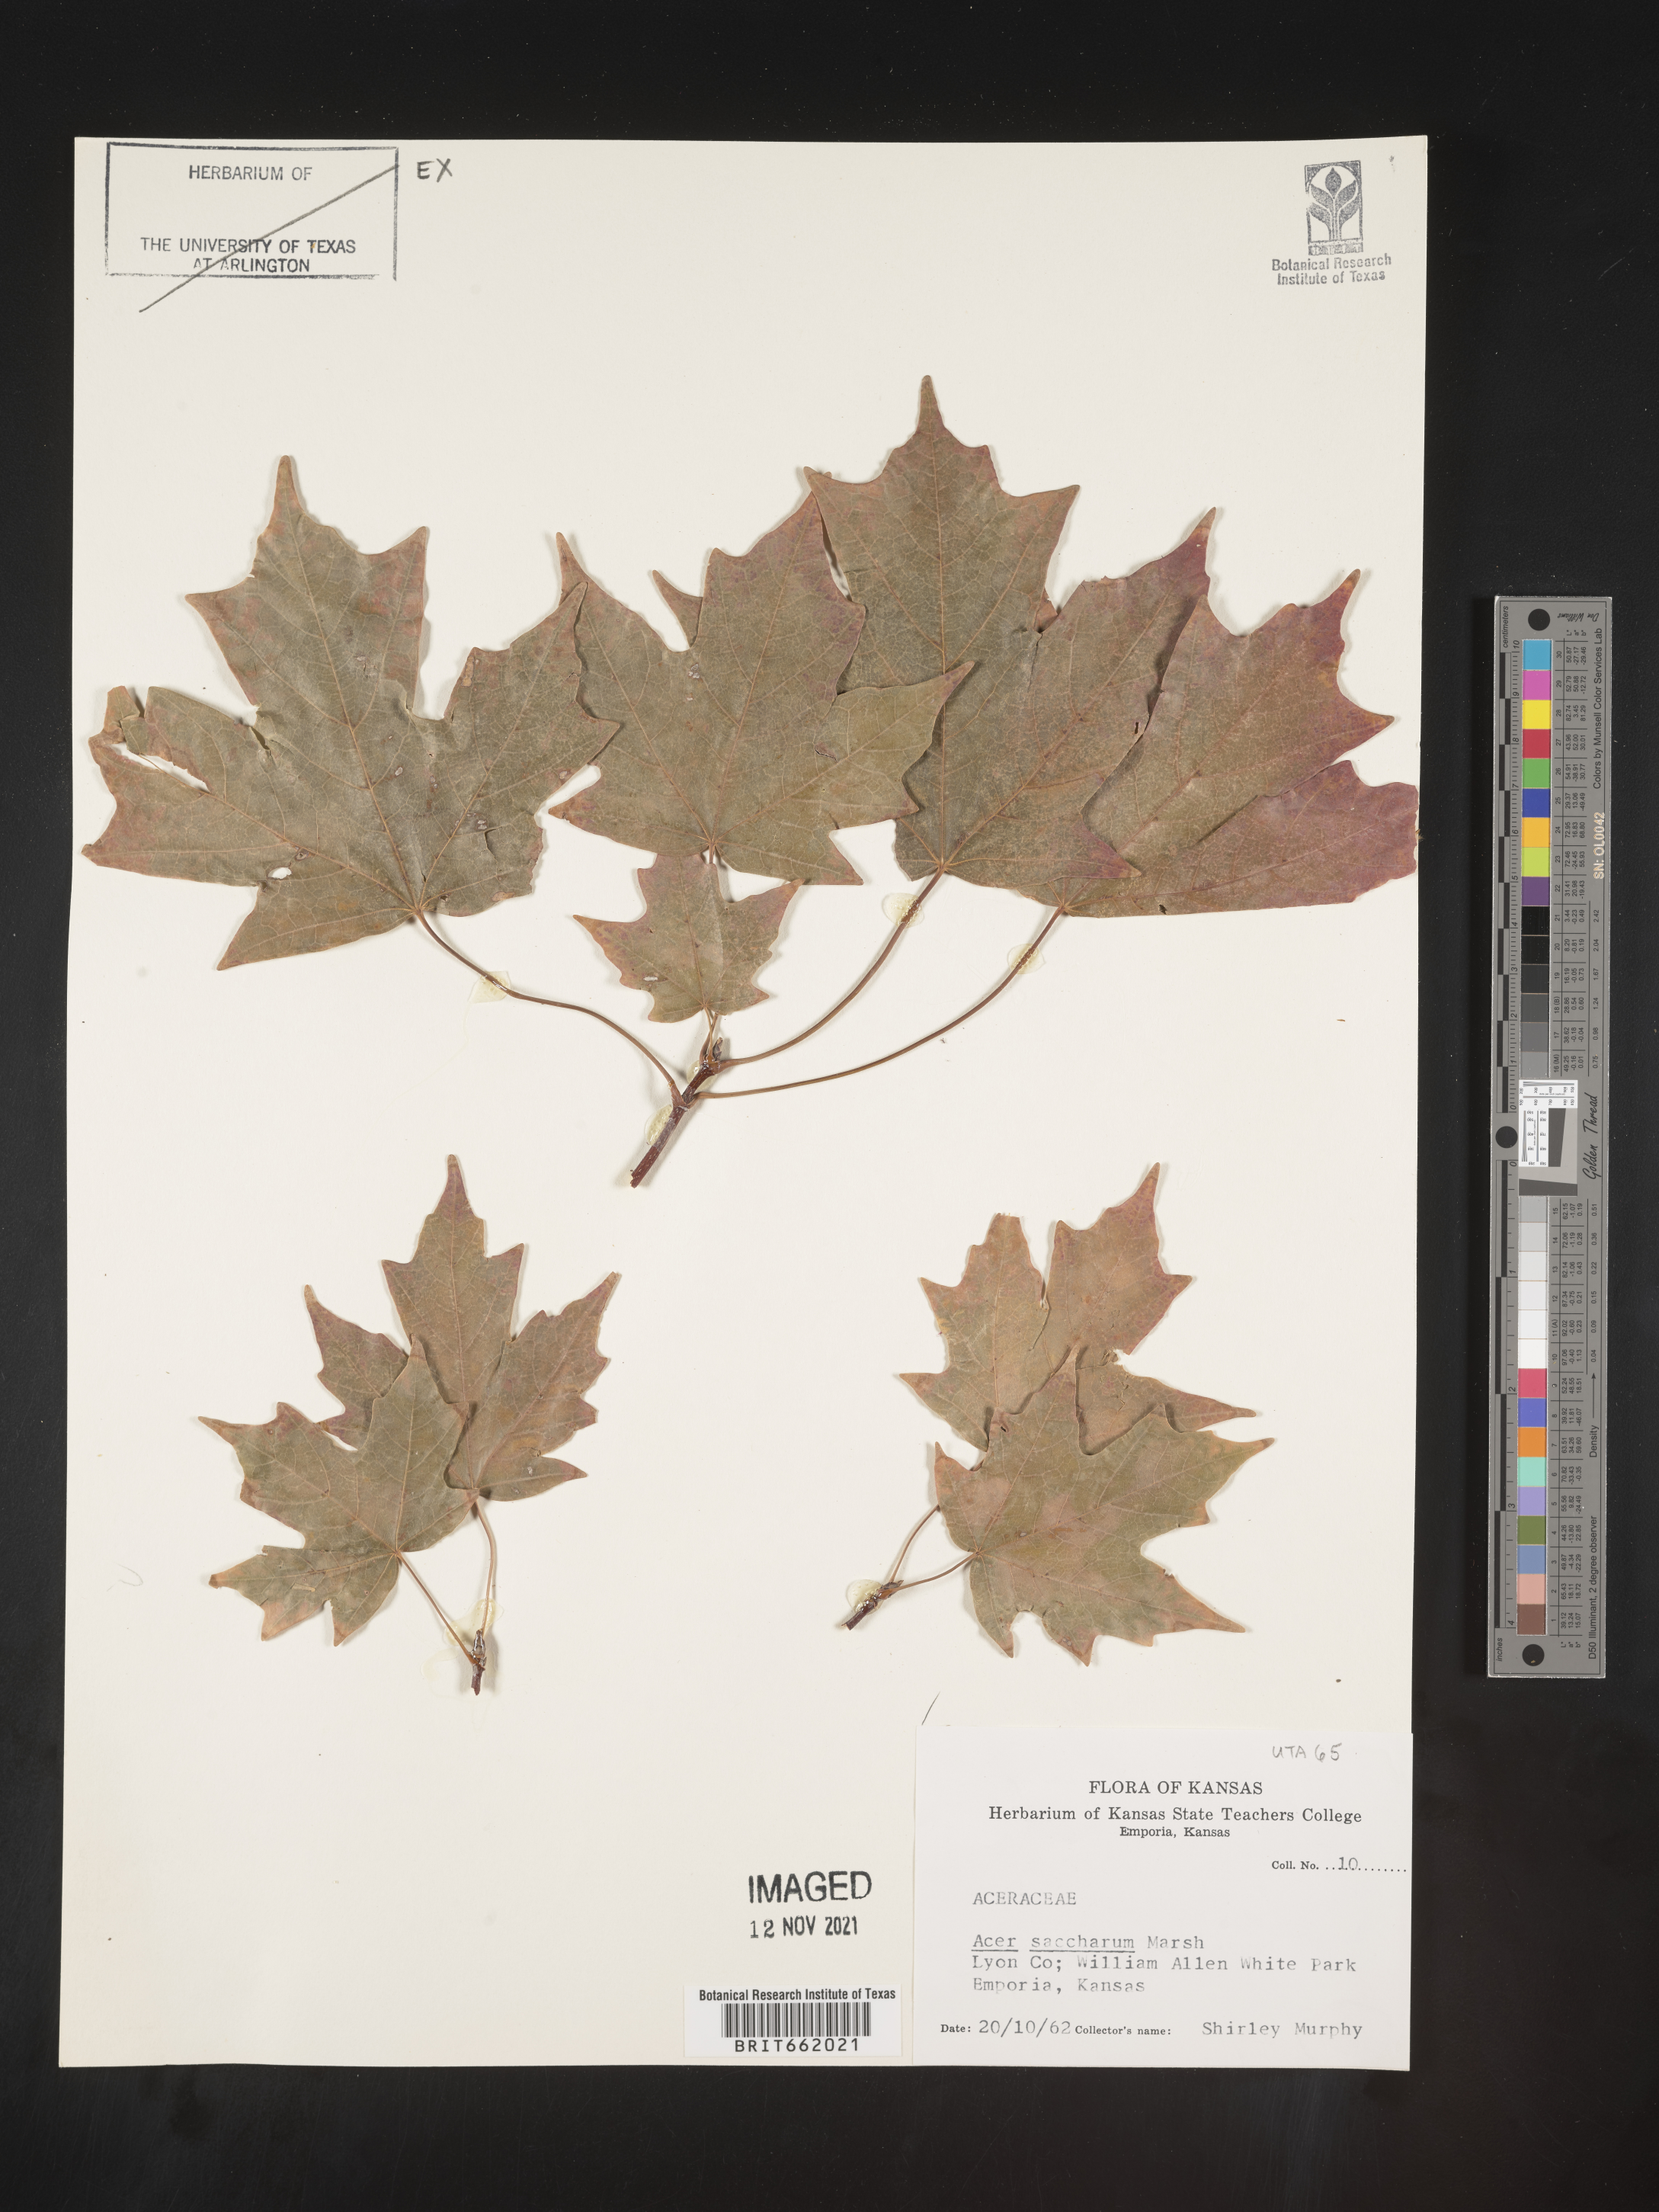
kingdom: Plantae
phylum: Tracheophyta
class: Magnoliopsida
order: Sapindales
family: Sapindaceae
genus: Acer
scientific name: Acer saccharum
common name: Sugar maple
